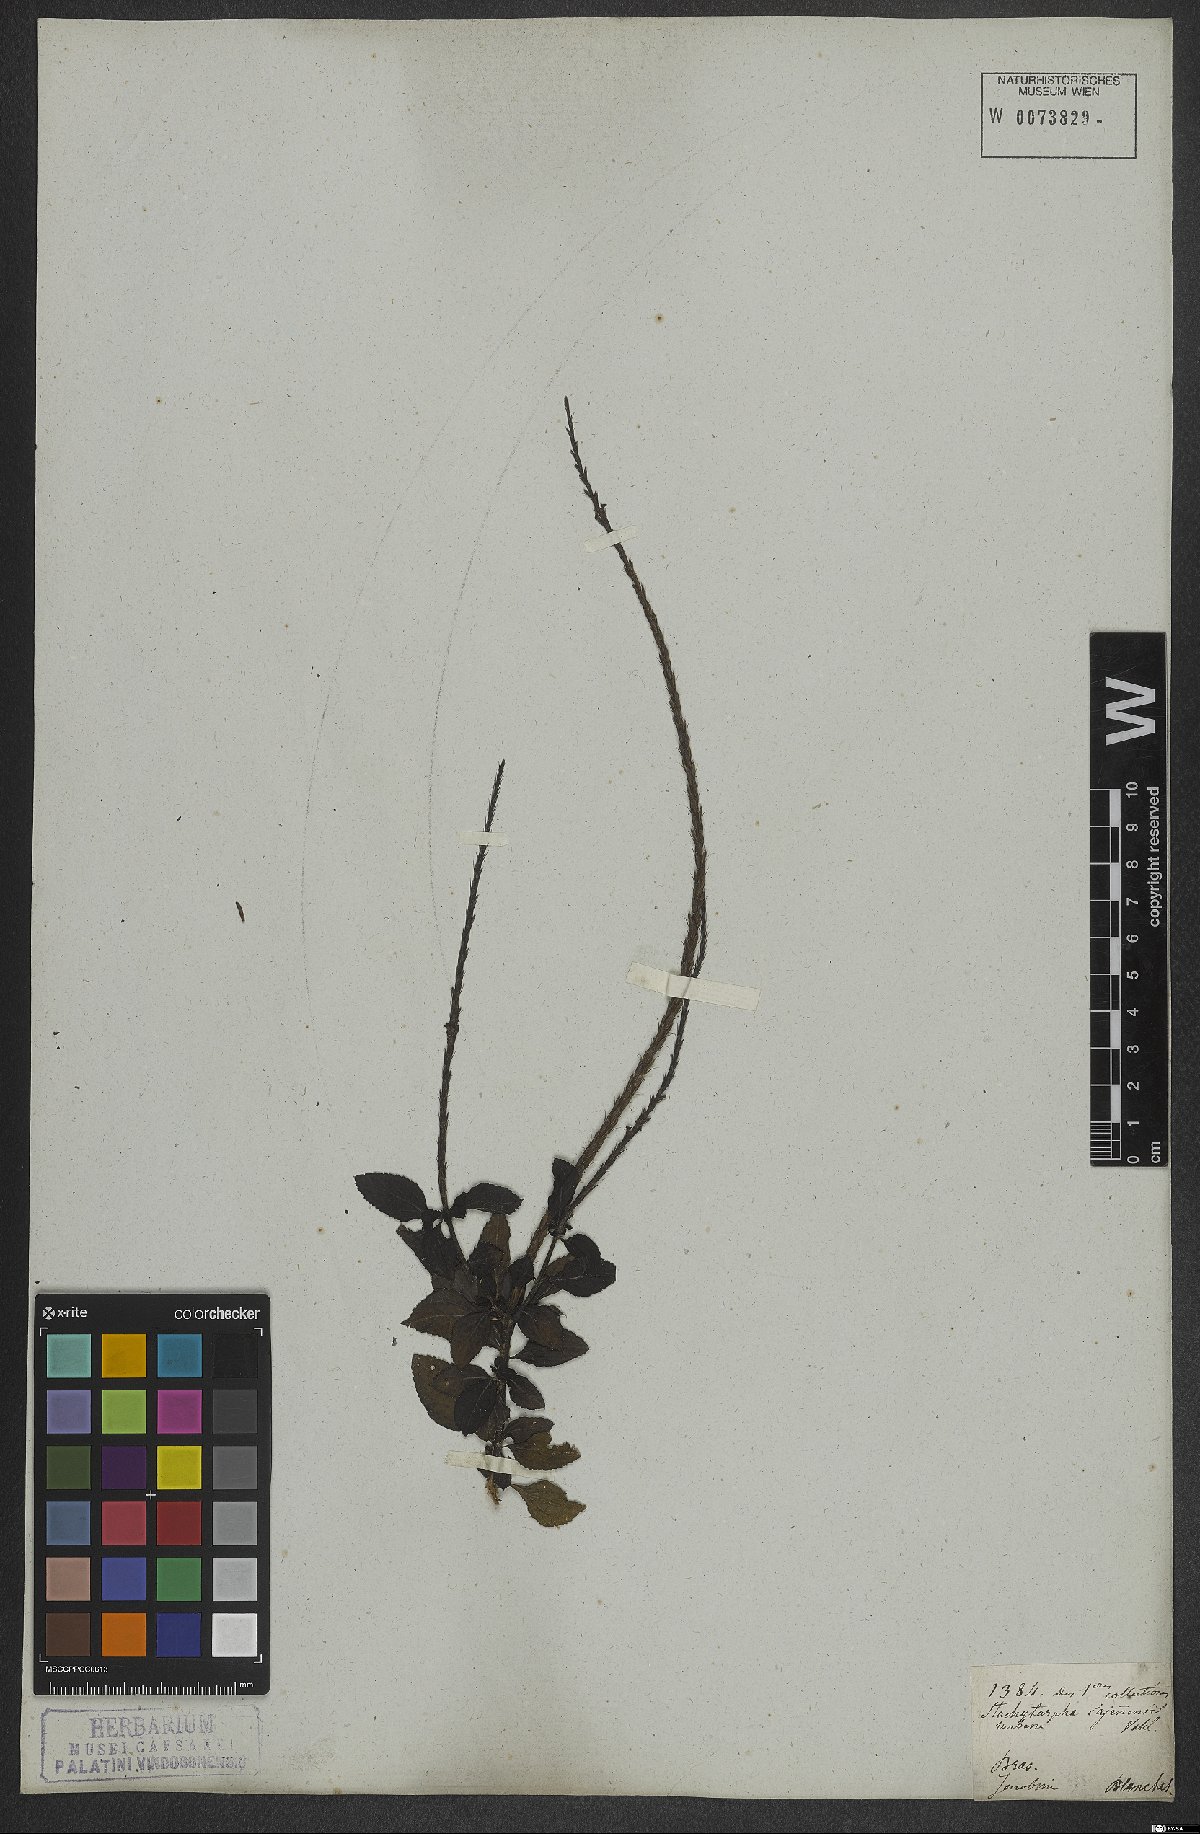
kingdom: Plantae
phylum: Tracheophyta
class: Magnoliopsida
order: Lamiales
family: Verbenaceae
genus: Stachytarpheta
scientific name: Stachytarpheta cayennensis
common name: Cayenne porterweed
